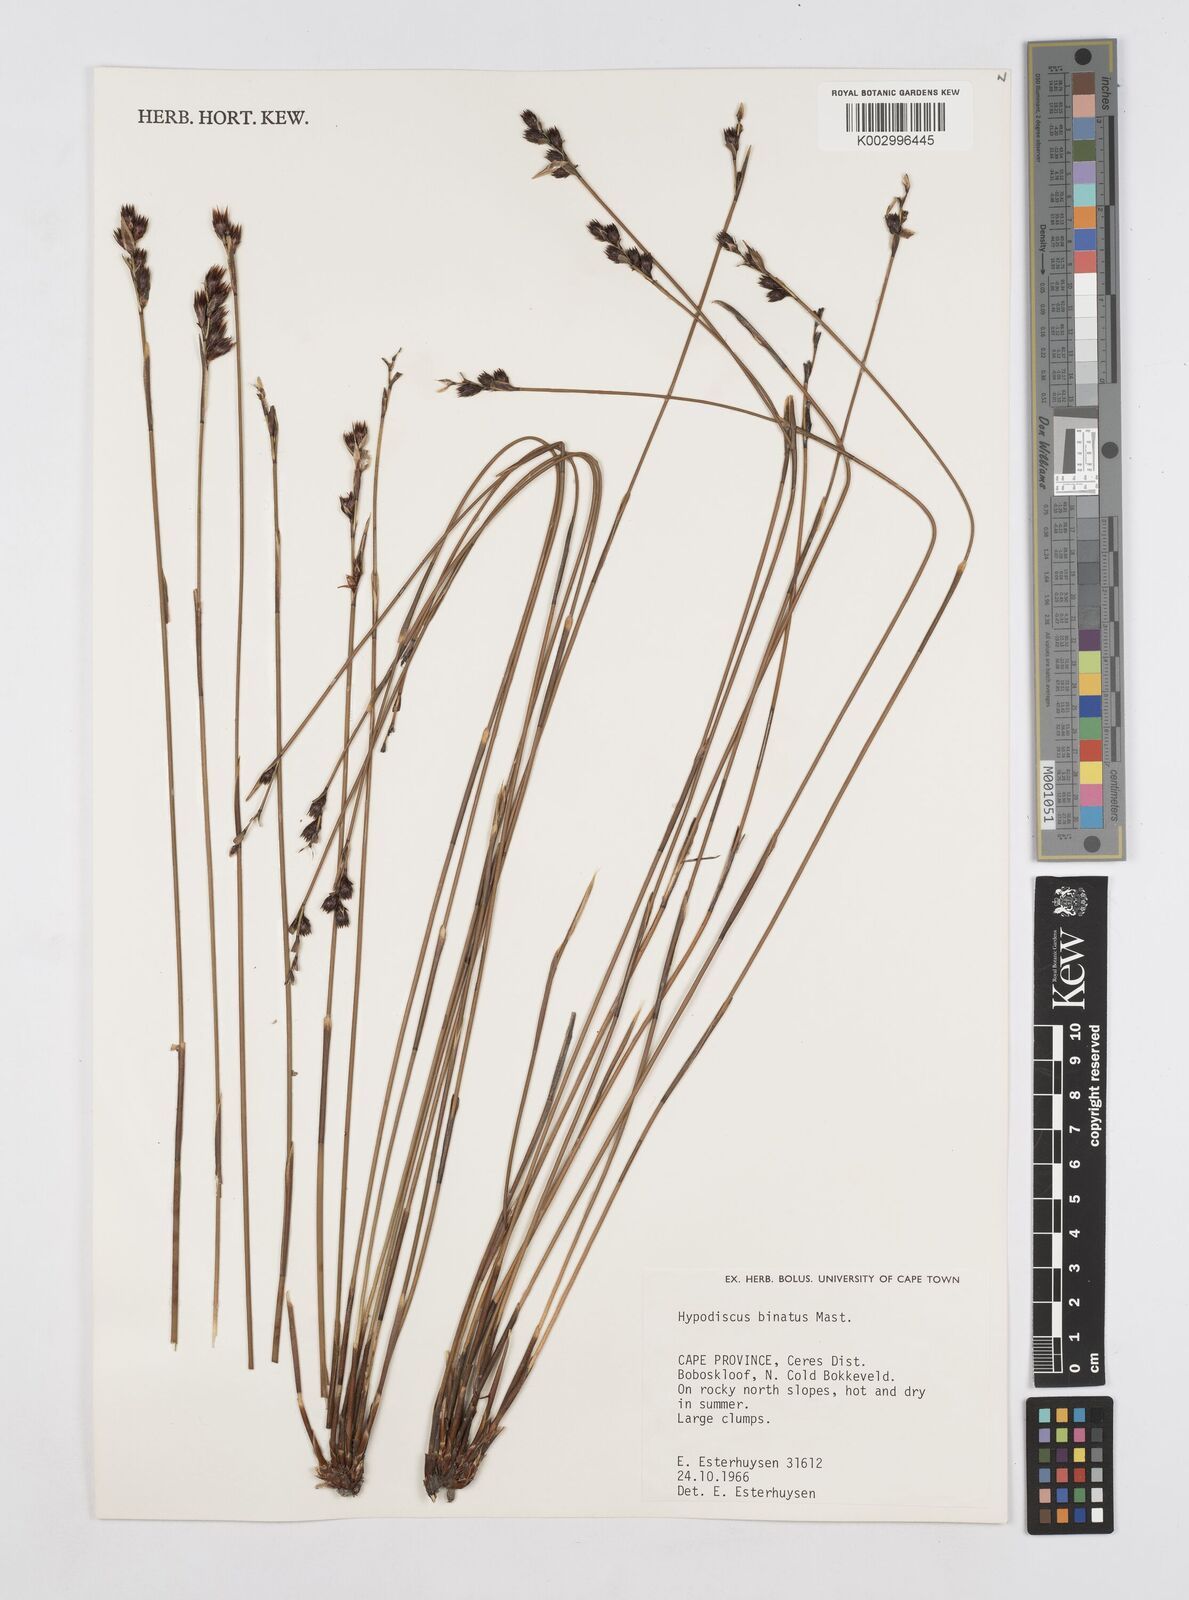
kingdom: Plantae
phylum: Tracheophyta
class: Liliopsida
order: Poales
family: Restionaceae
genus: Hypodiscus
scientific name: Hypodiscus laevigatus
